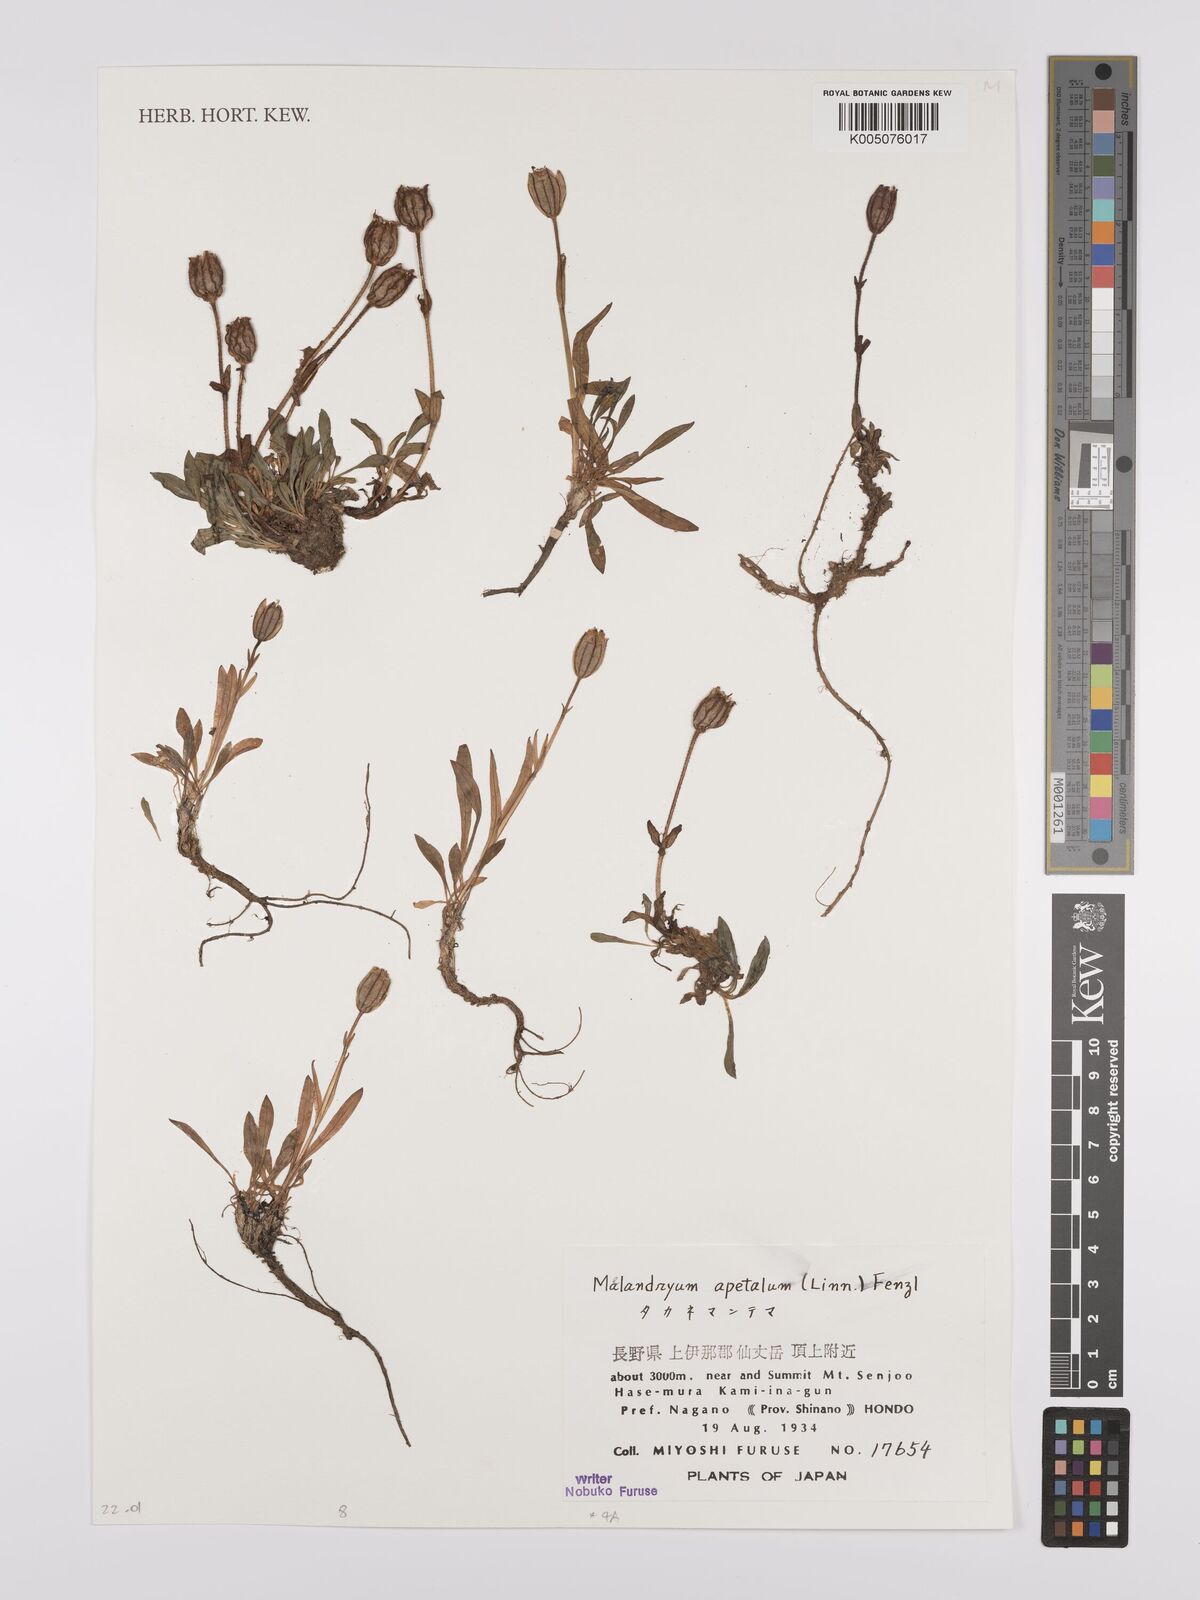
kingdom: Plantae
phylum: Tracheophyta
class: Magnoliopsida
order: Caryophyllales
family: Caryophyllaceae
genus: Silene
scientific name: Silene
